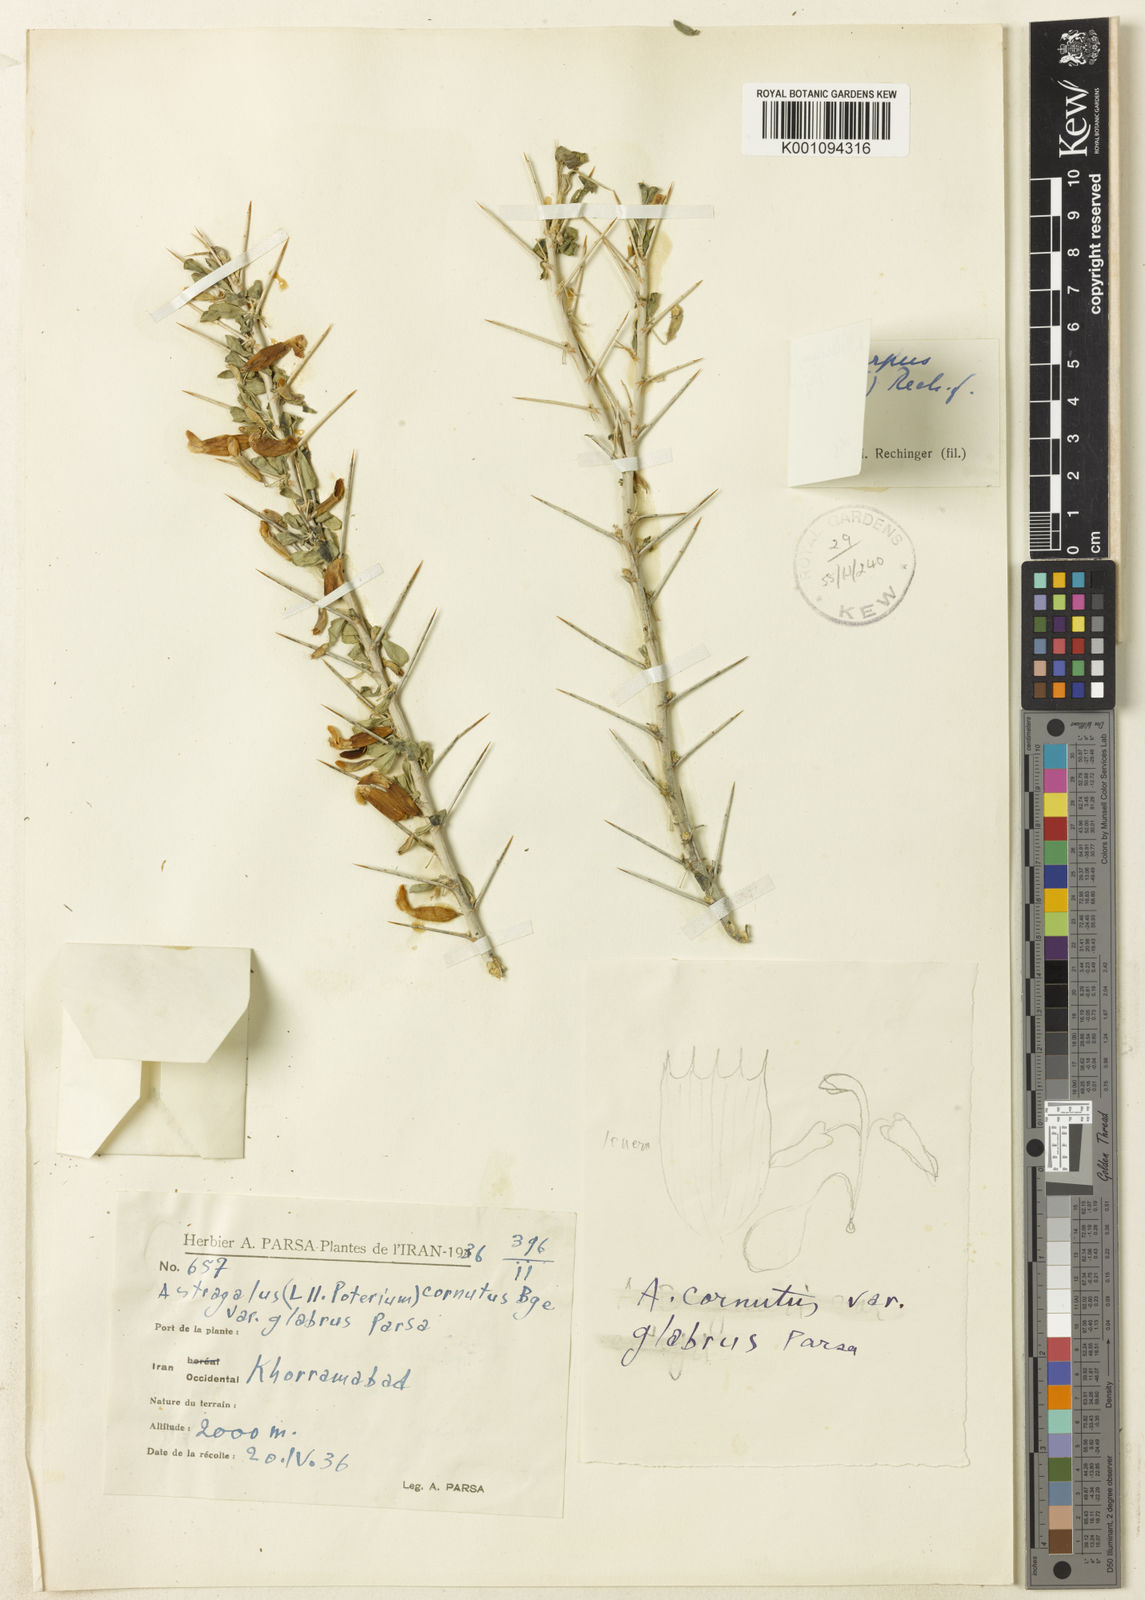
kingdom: Plantae
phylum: Tracheophyta
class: Magnoliopsida
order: Fabales
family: Fabaceae
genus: Astragalus
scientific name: Astragalus
